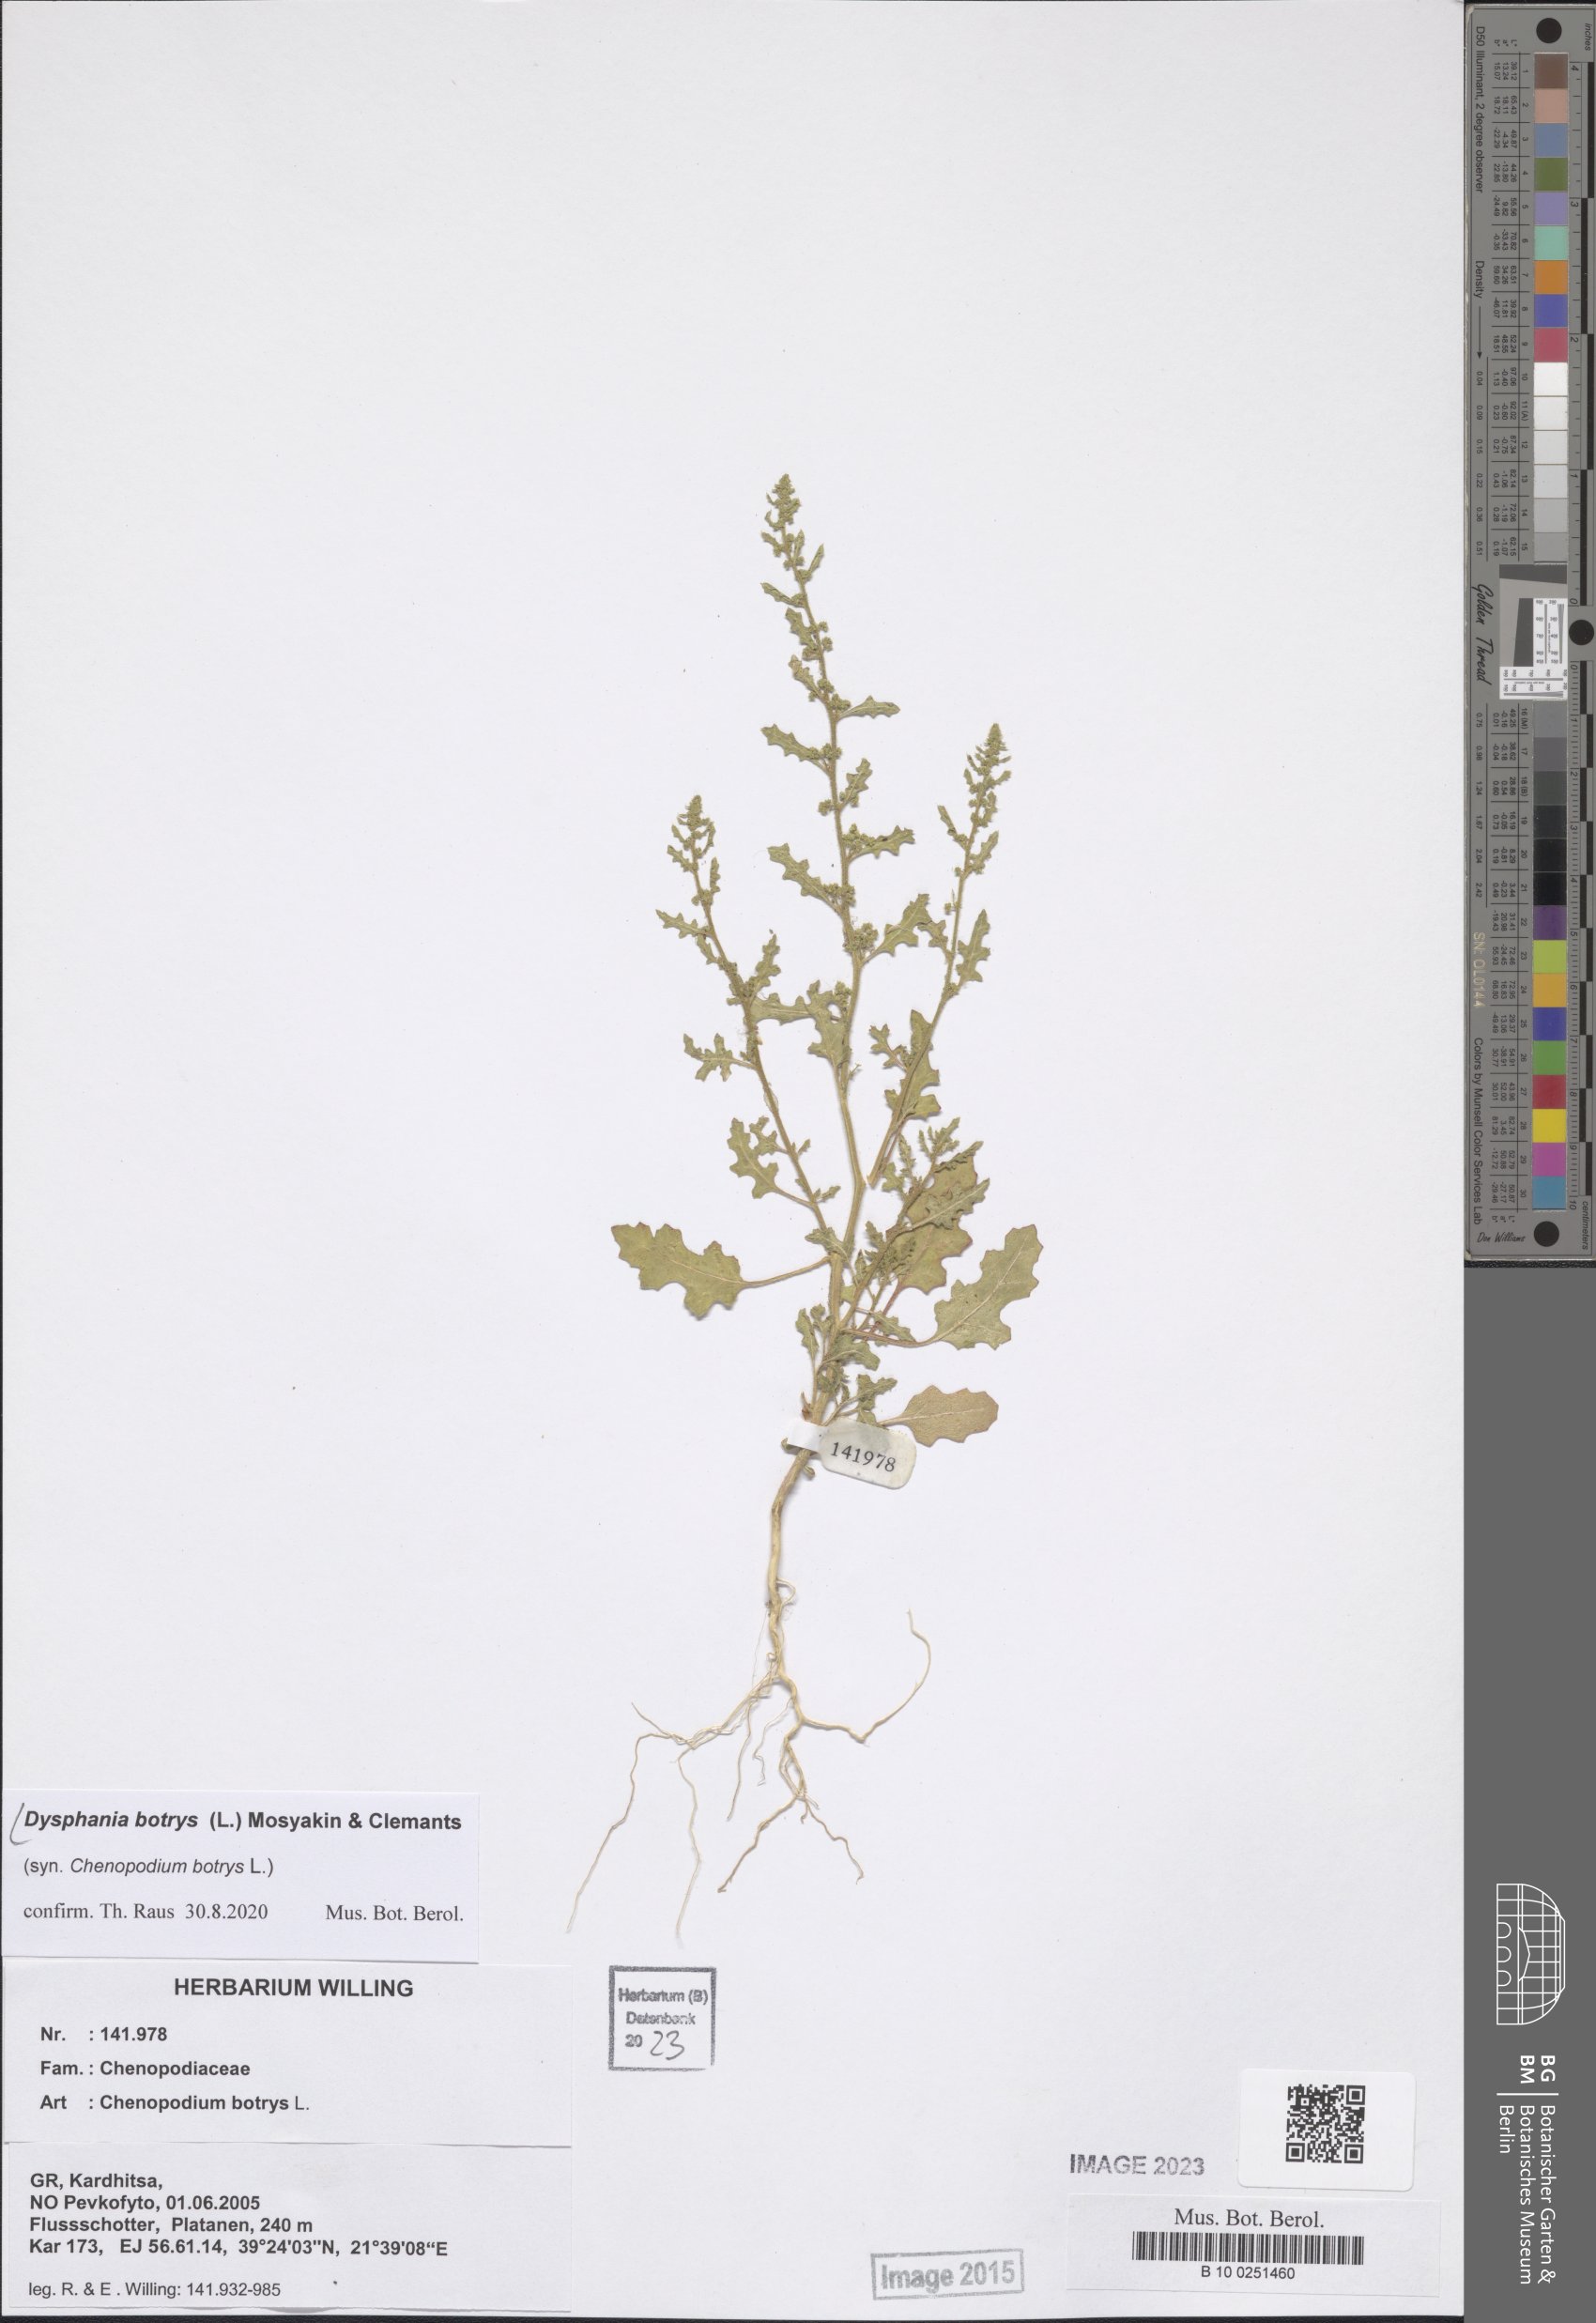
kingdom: Plantae
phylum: Tracheophyta
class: Magnoliopsida
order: Caryophyllales
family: Amaranthaceae
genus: Dysphania
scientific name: Dysphania botrys
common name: Feather-geranium
